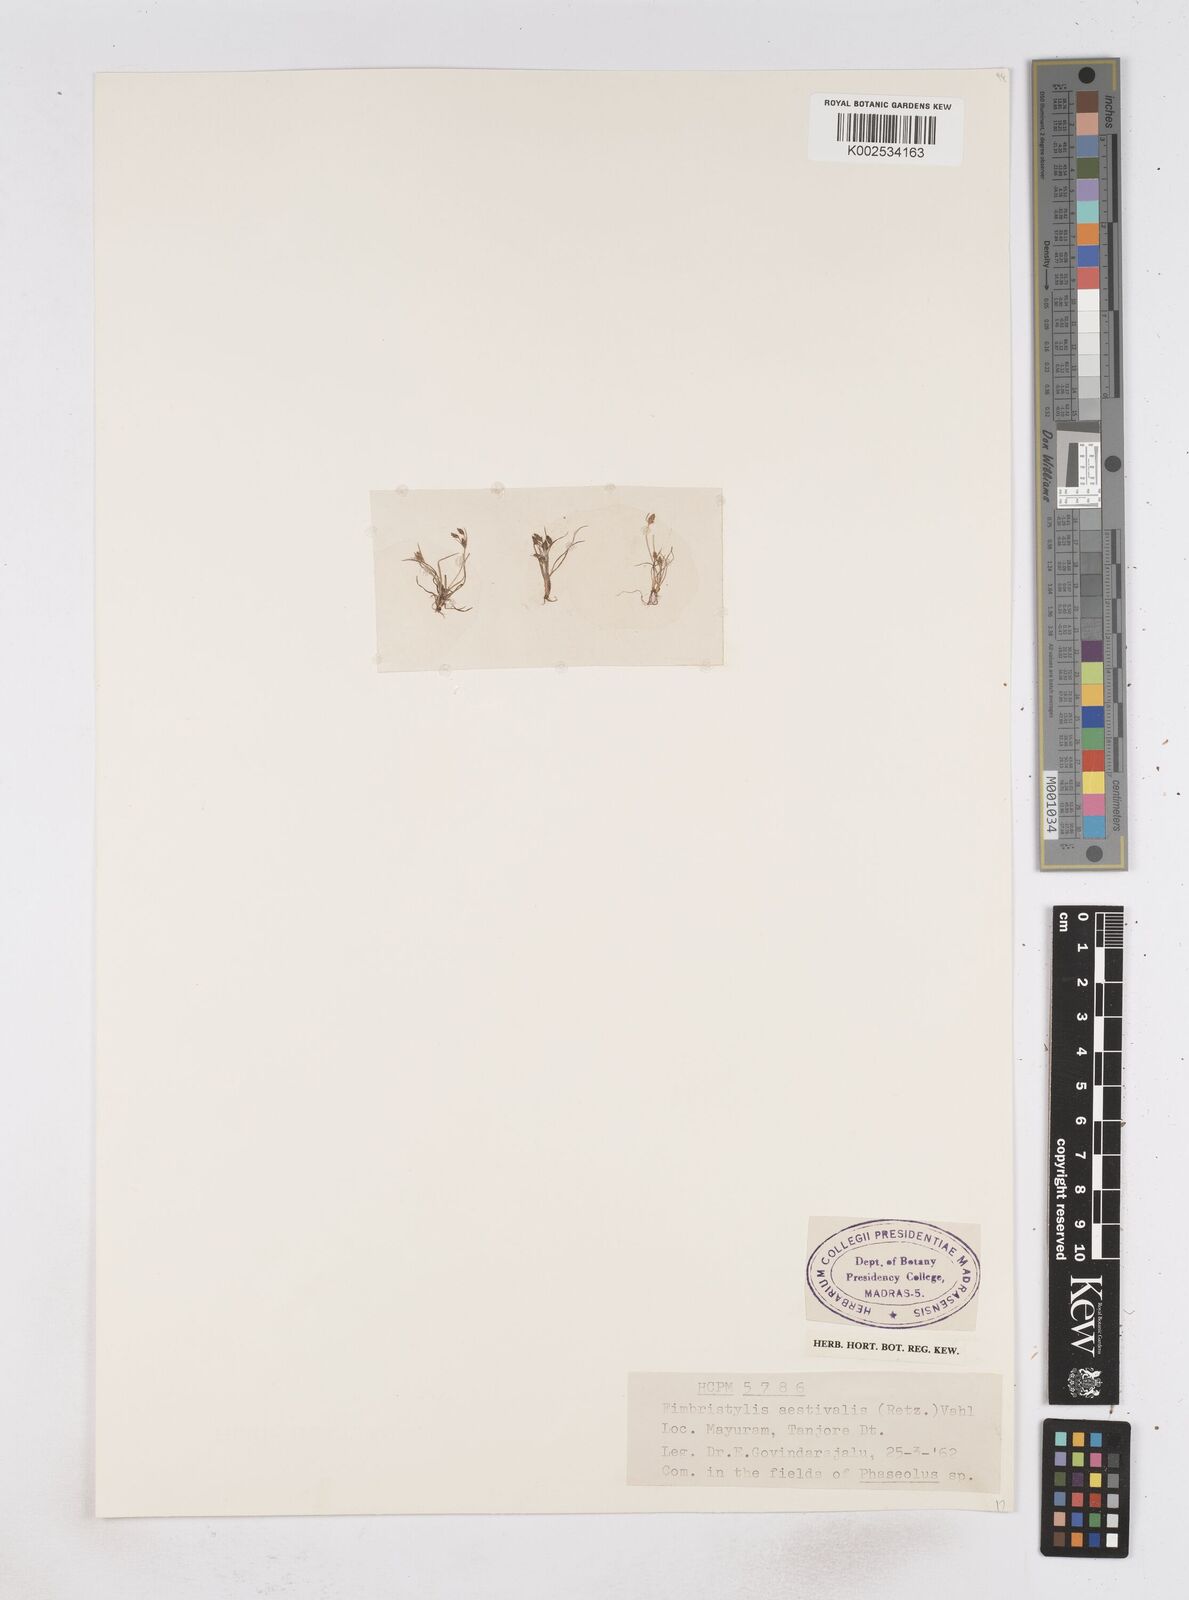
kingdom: Plantae
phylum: Tracheophyta
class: Liliopsida
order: Poales
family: Cyperaceae
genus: Fimbristylis
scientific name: Fimbristylis aestivalis
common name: Summer fimbry
